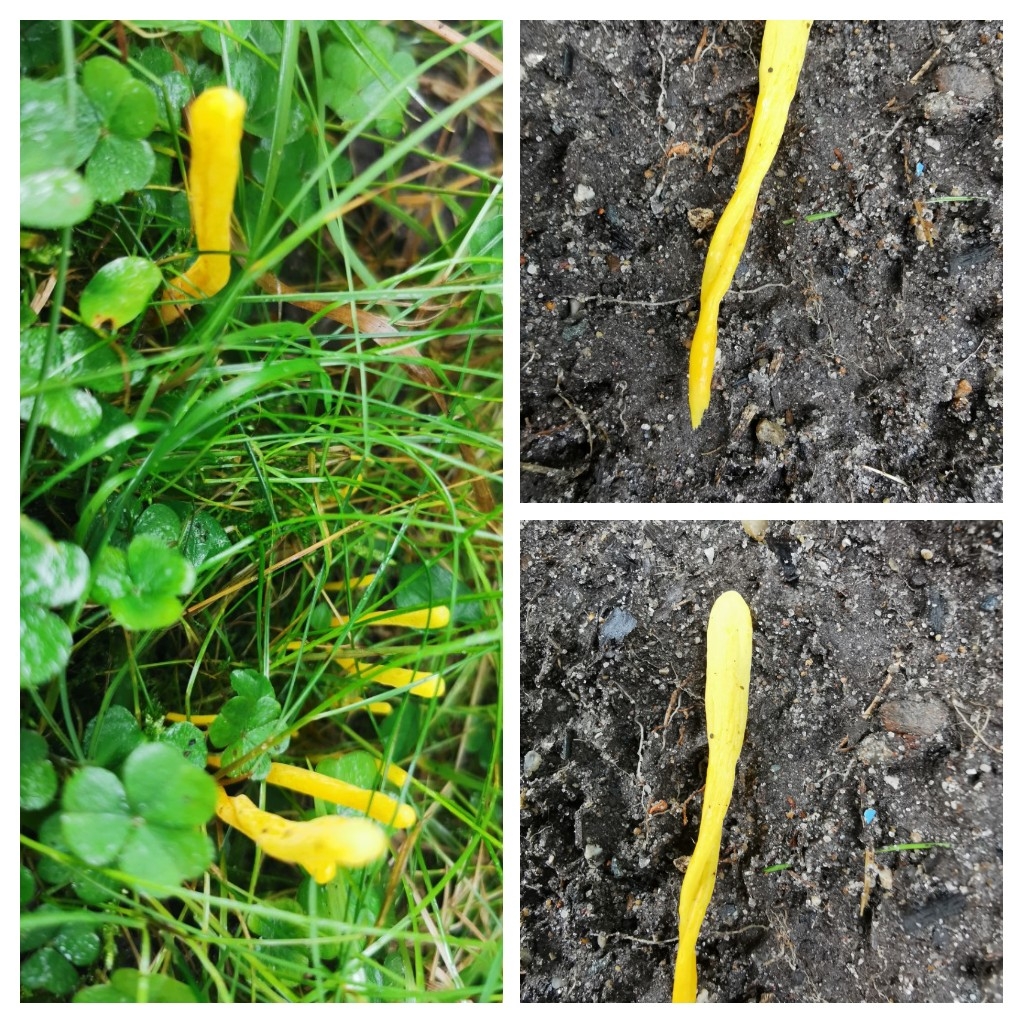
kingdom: Fungi
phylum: Basidiomycota
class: Agaricomycetes
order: Agaricales
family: Clavariaceae
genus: Clavulinopsis
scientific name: Clavulinopsis
